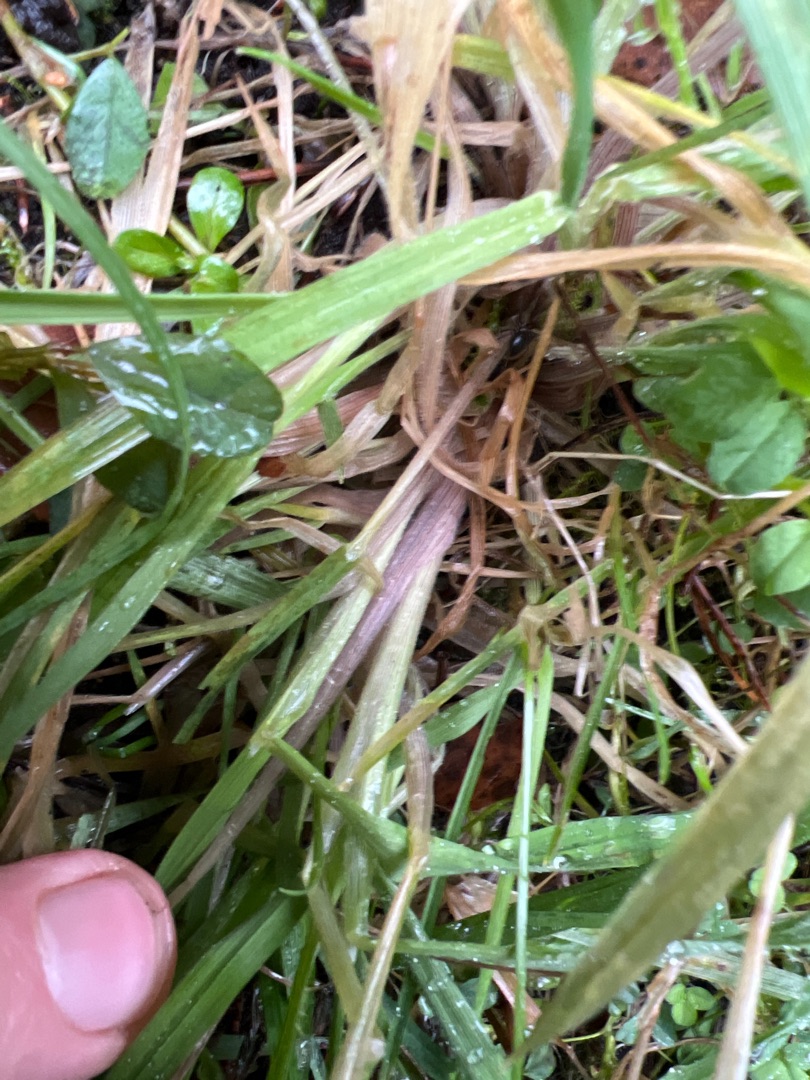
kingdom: Plantae
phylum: Tracheophyta
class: Liliopsida
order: Poales
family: Poaceae
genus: Holcus
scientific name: Holcus lanatus
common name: Fløjlsgræs
